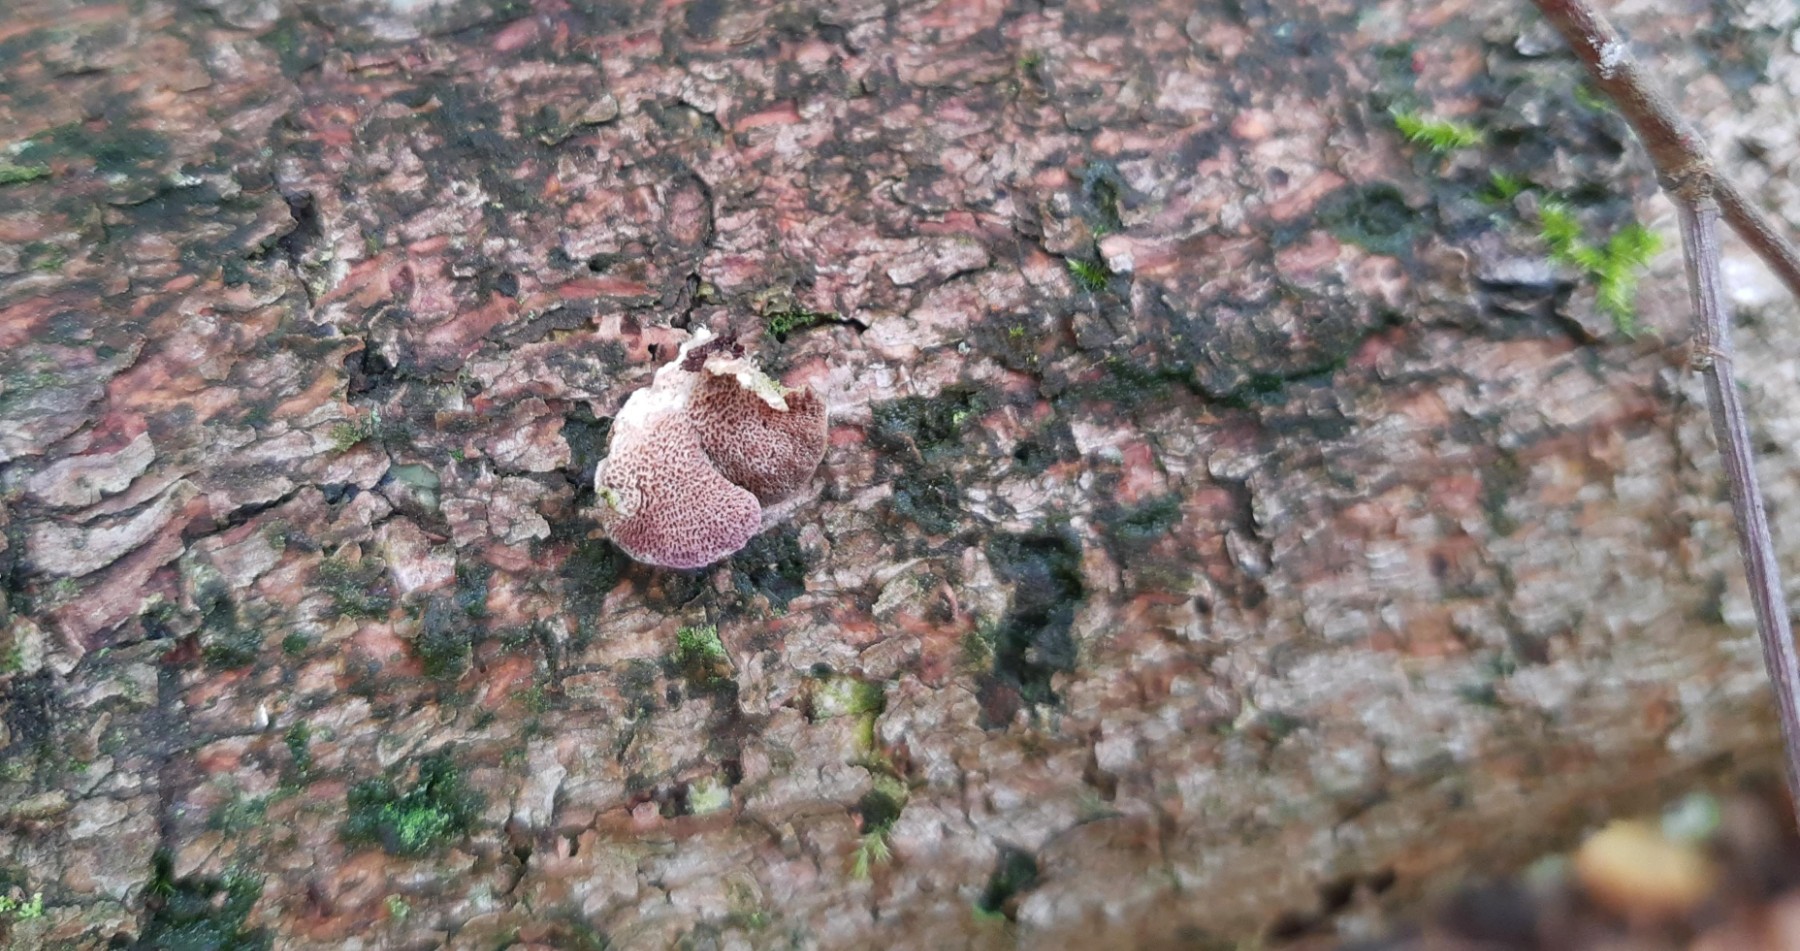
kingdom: Fungi
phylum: Basidiomycota
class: Agaricomycetes
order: Hymenochaetales
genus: Trichaptum
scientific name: Trichaptum abietinum
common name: almindelig violporesvamp
